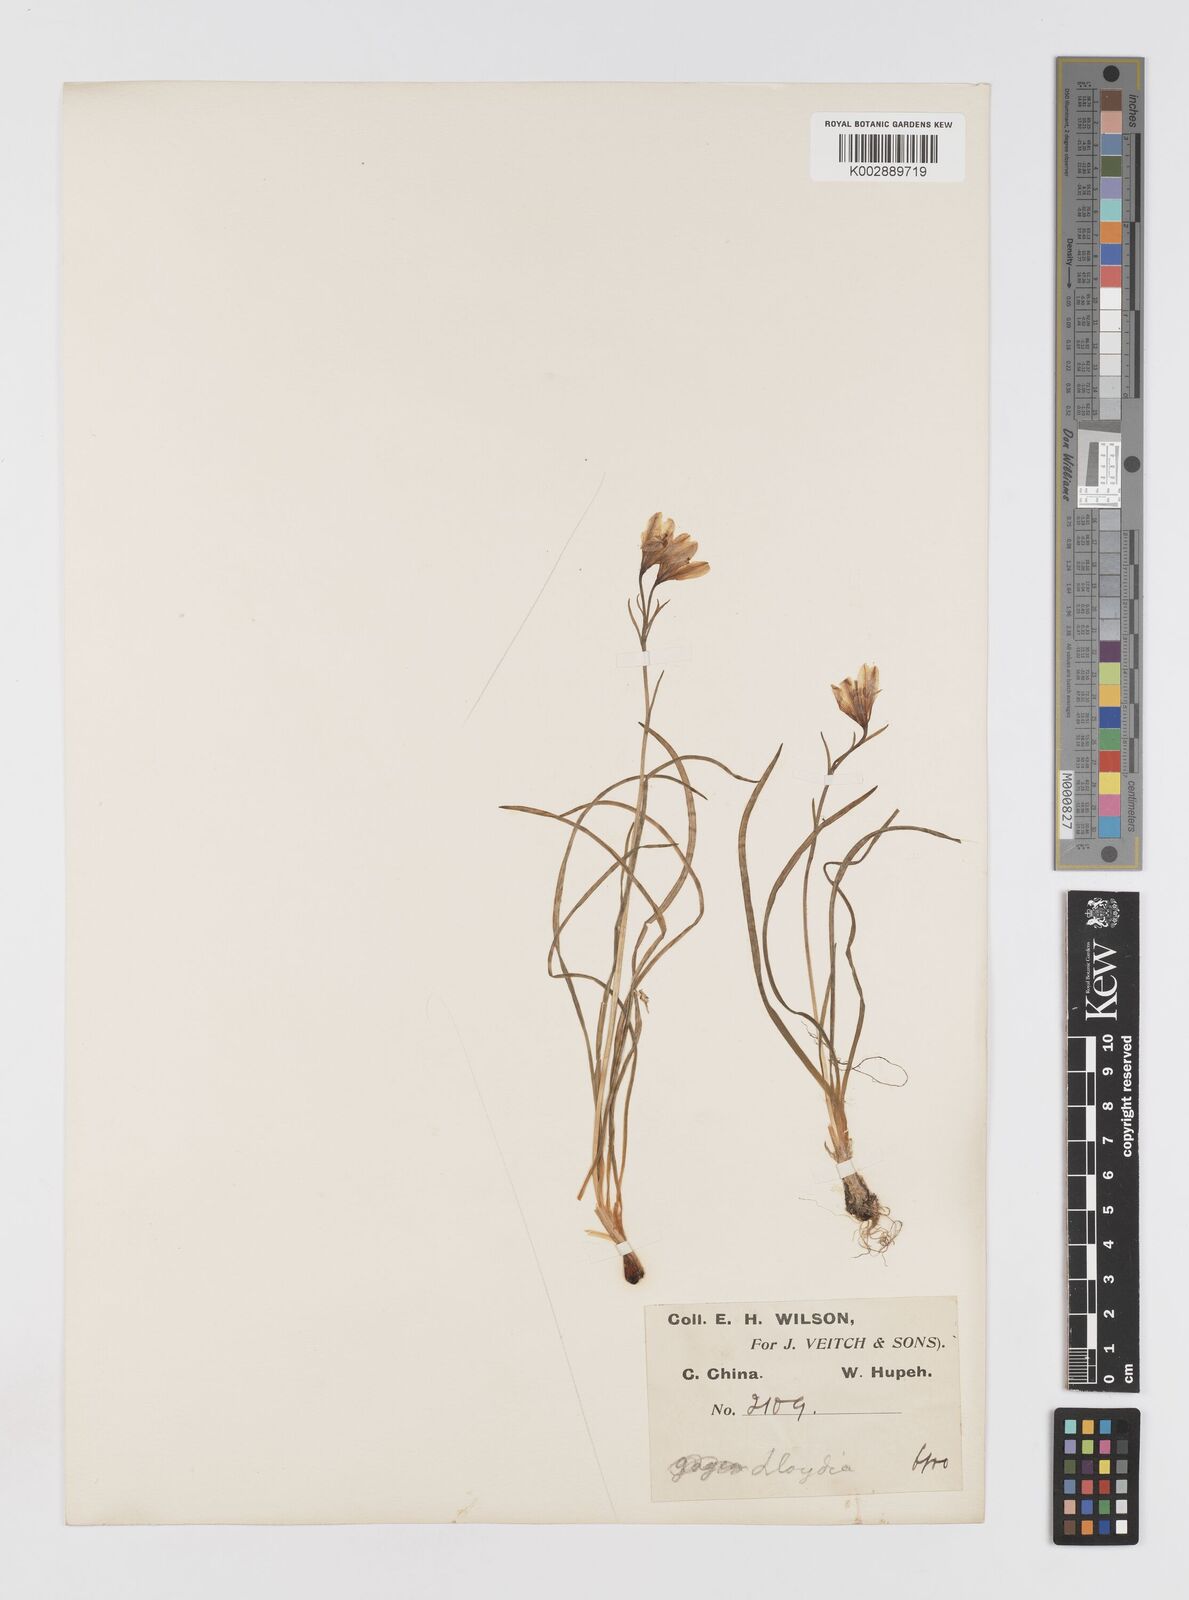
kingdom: Plantae
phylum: Tracheophyta
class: Liliopsida
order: Liliales
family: Liliaceae
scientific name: Liliaceae
